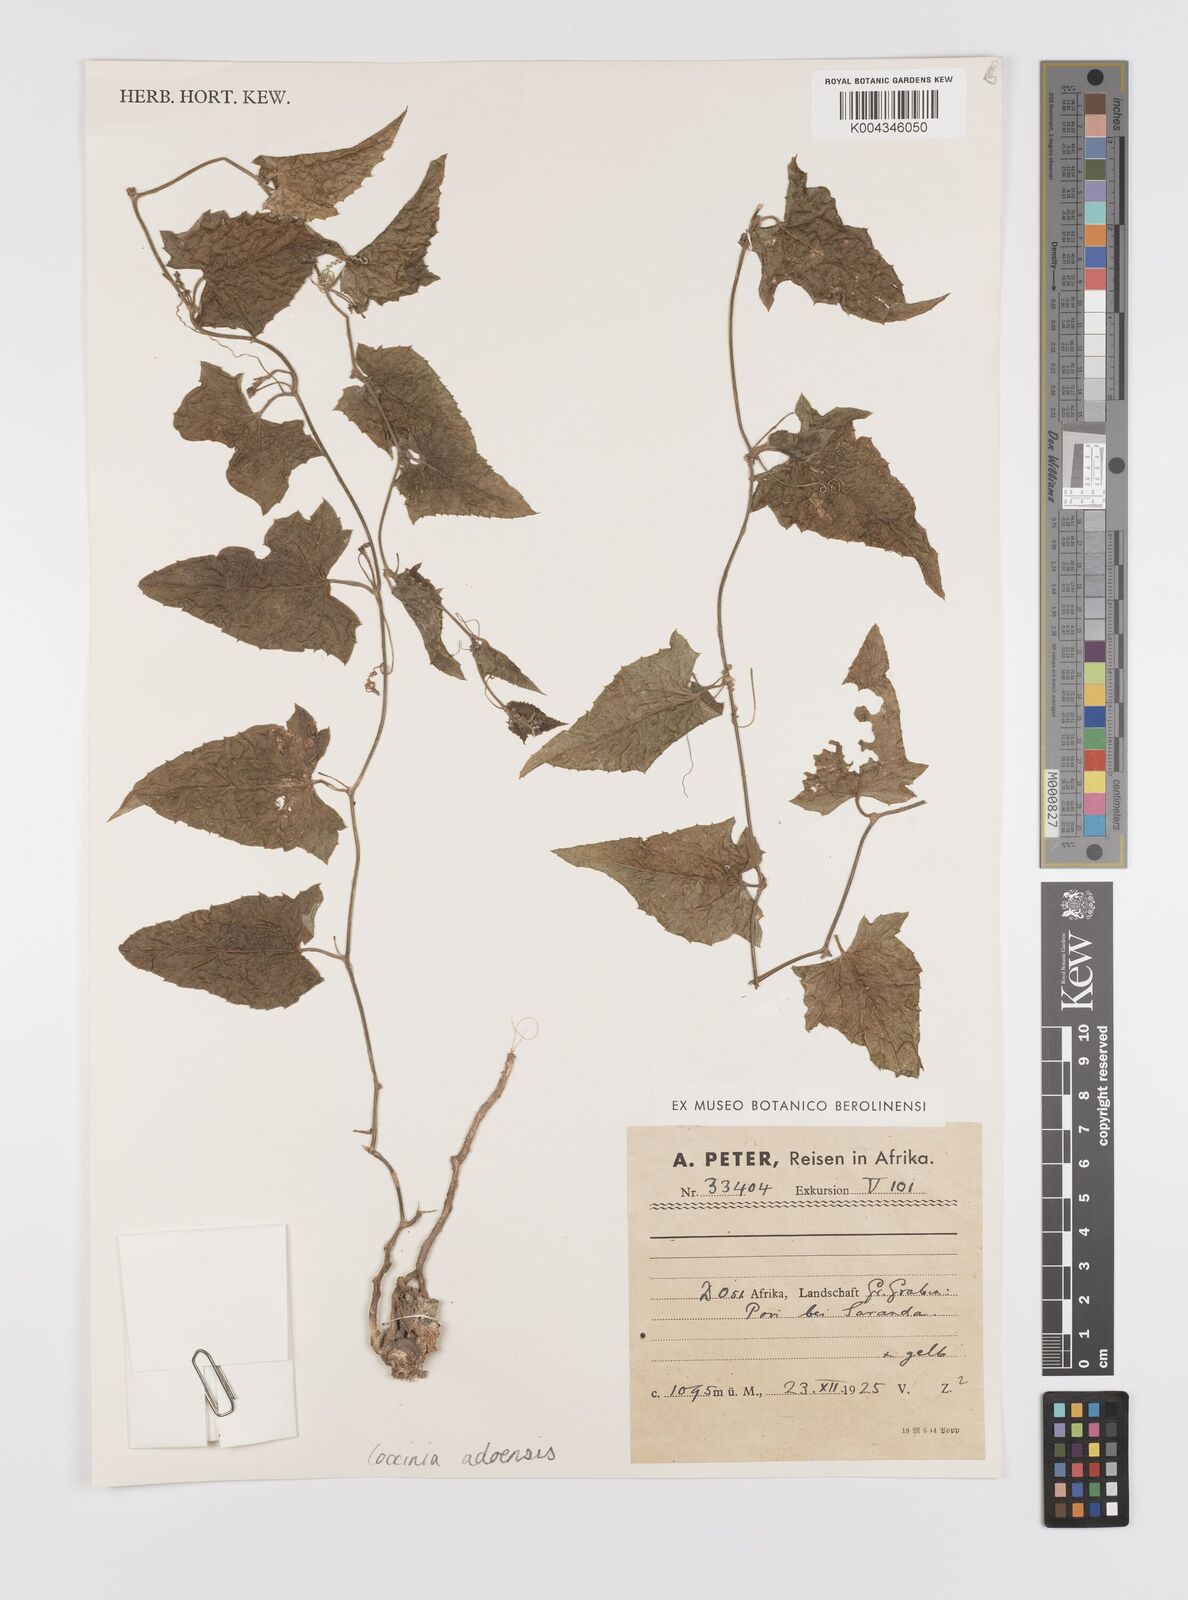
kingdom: Plantae
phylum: Tracheophyta
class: Magnoliopsida
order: Cucurbitales
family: Cucurbitaceae
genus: Coccinia
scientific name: Coccinia adoensis
